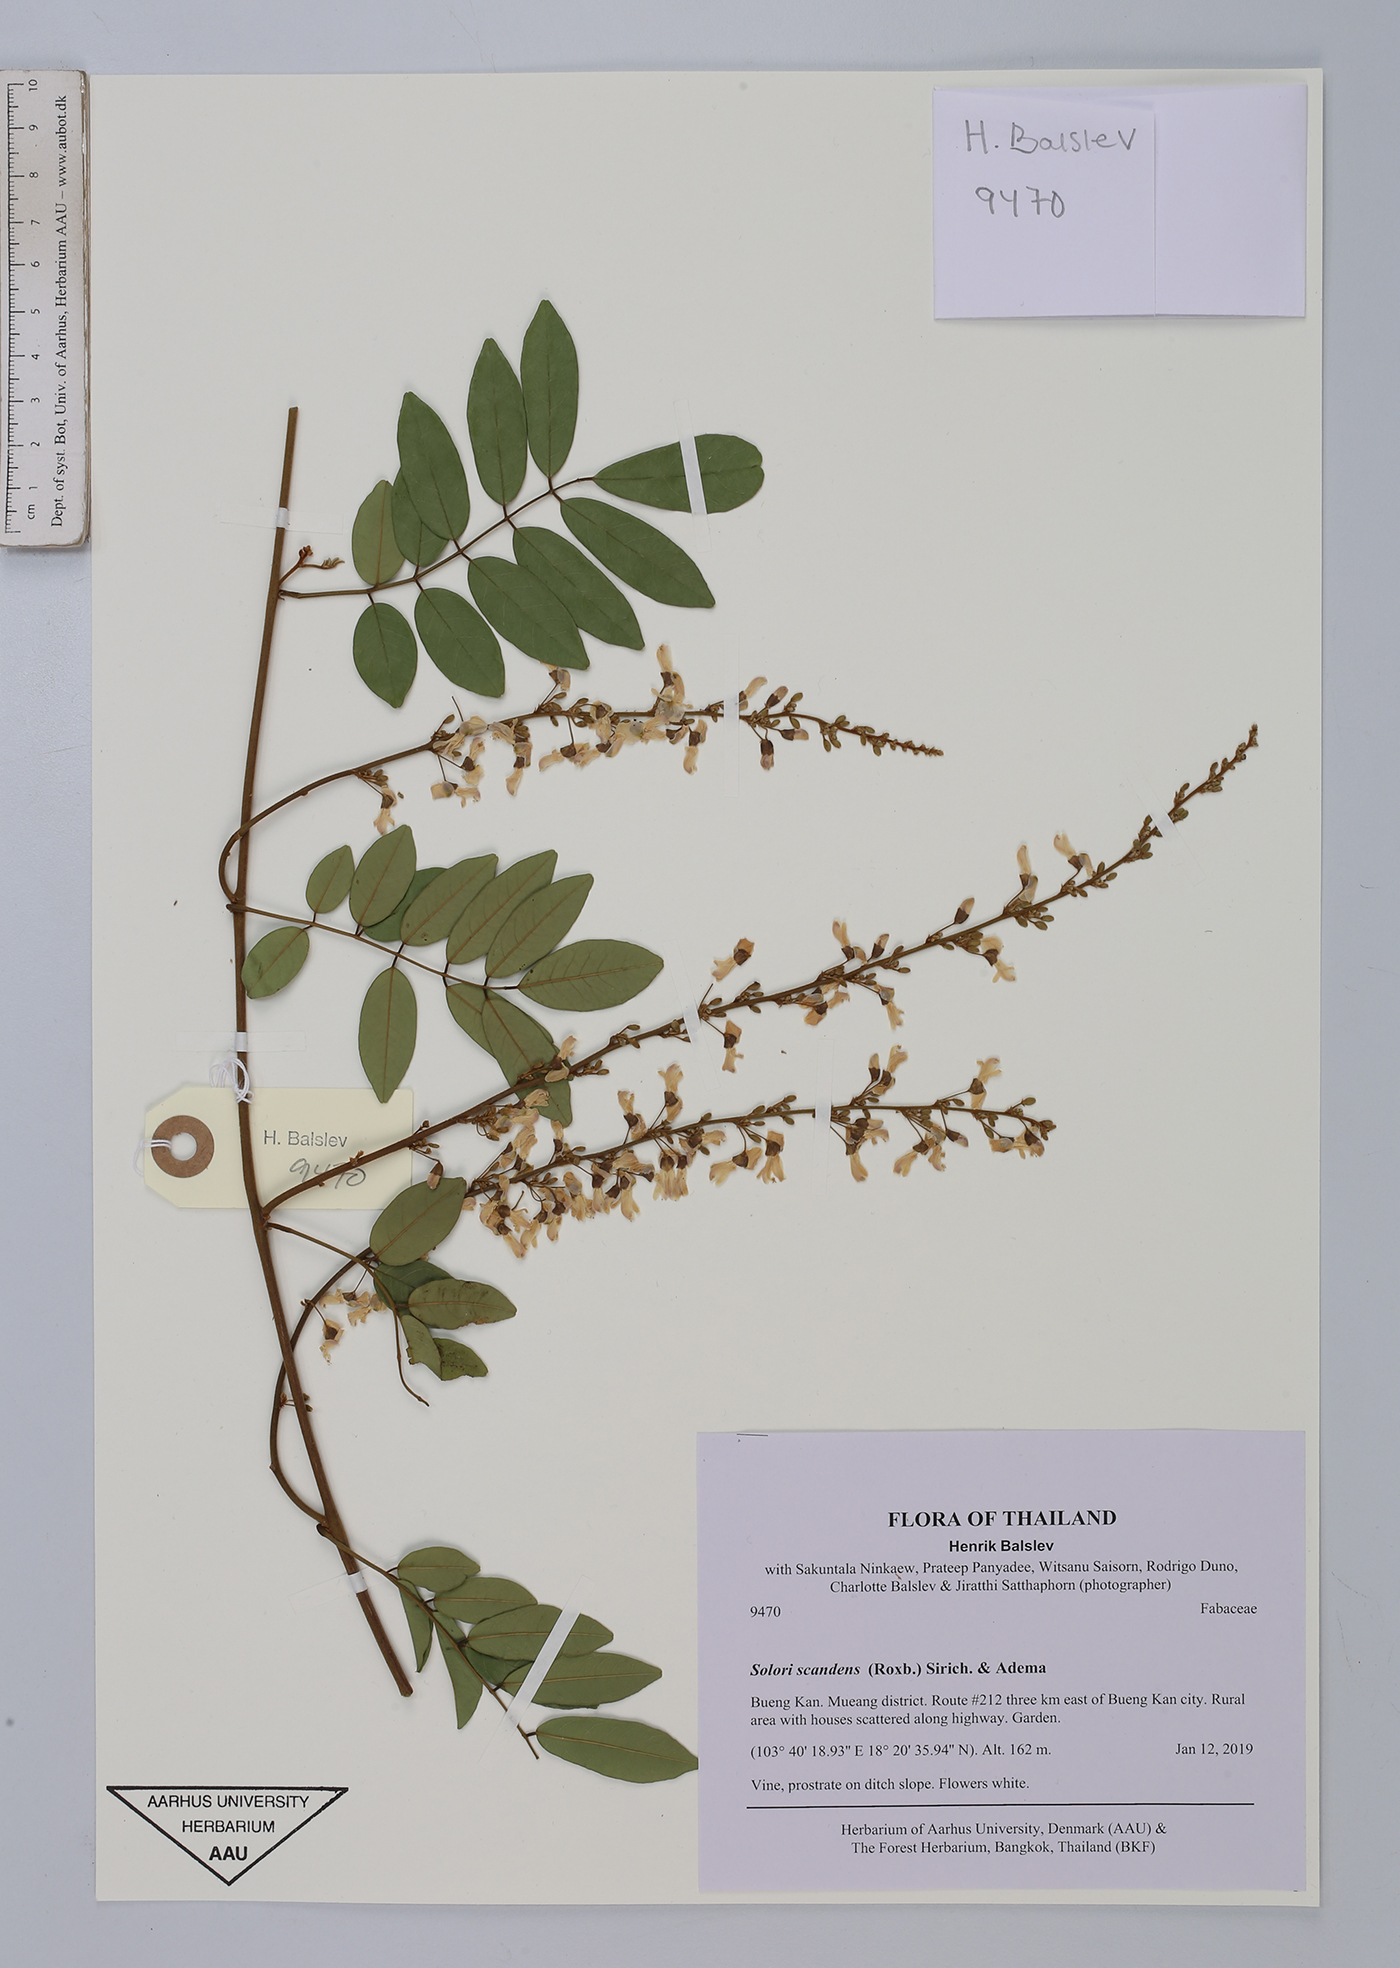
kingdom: Plantae
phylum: Tracheophyta
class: Magnoliopsida
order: Fabales
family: Fabaceae
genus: Deguelia
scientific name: Deguelia scandens
